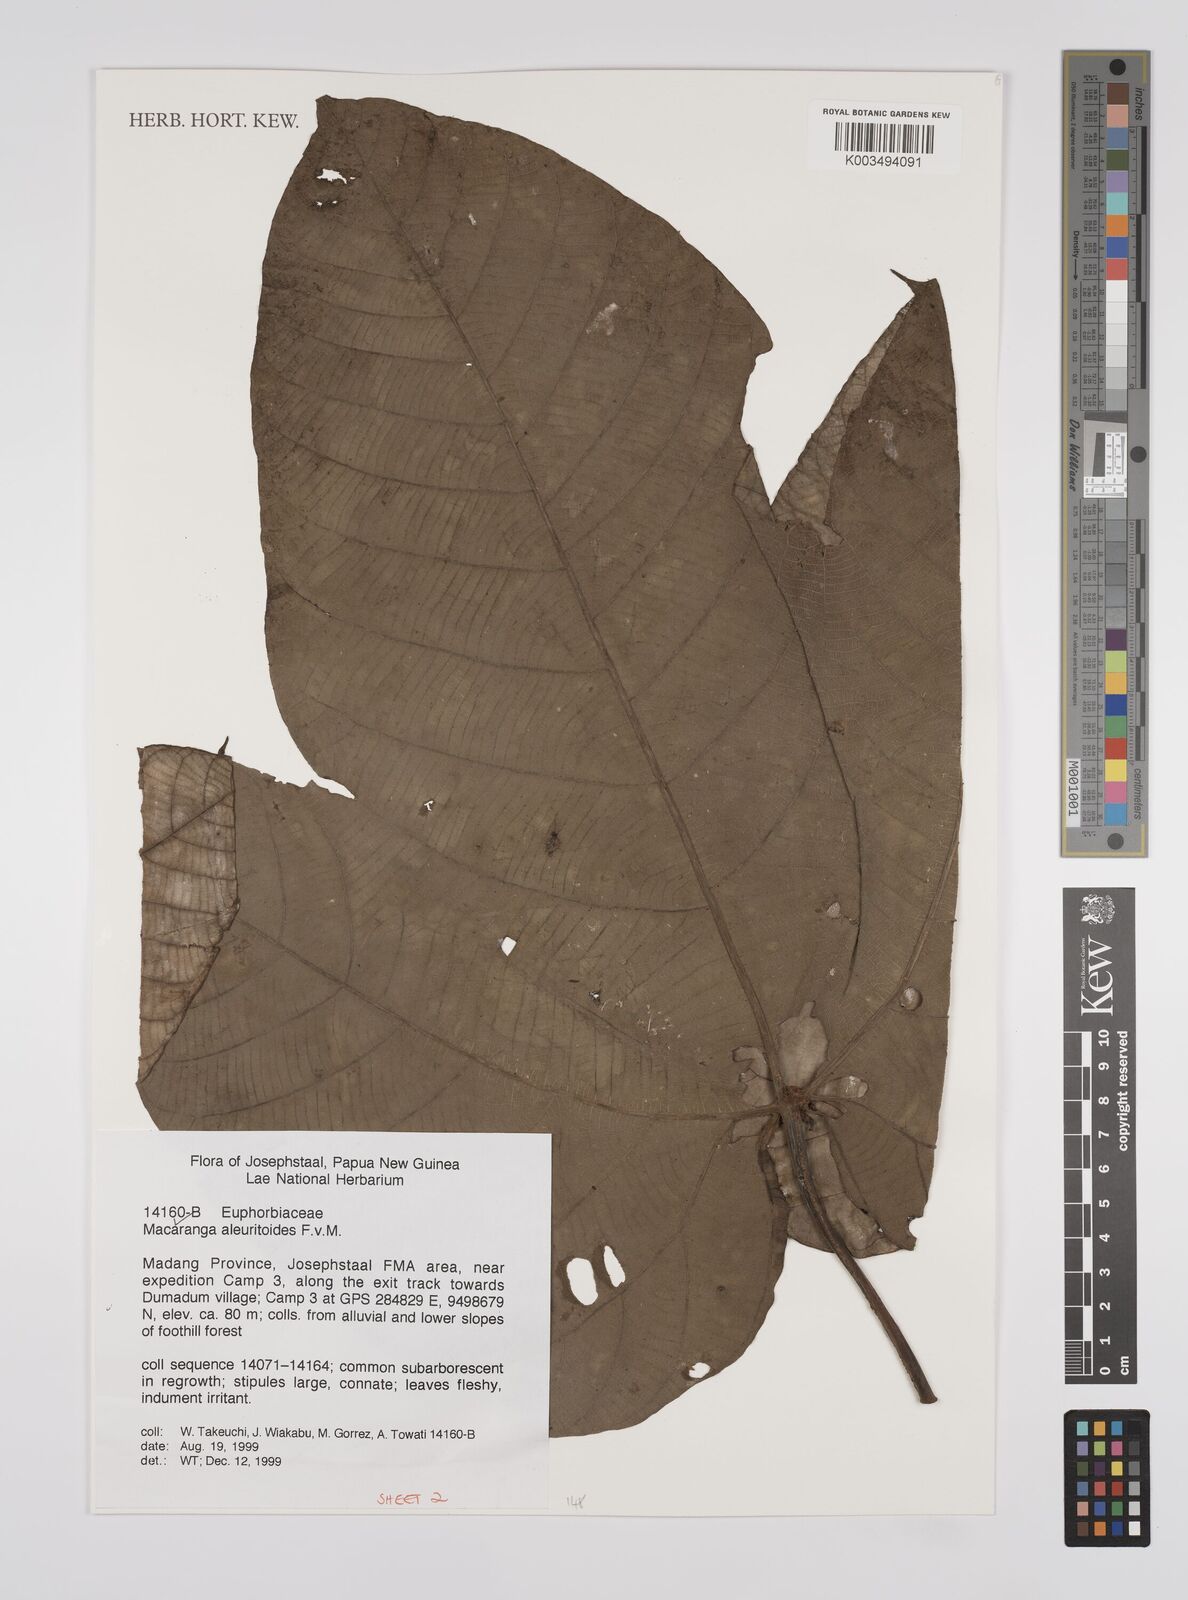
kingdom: Plantae
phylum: Tracheophyta
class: Magnoliopsida
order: Malpighiales
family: Euphorbiaceae
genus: Macaranga
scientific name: Macaranga aleuritoides
